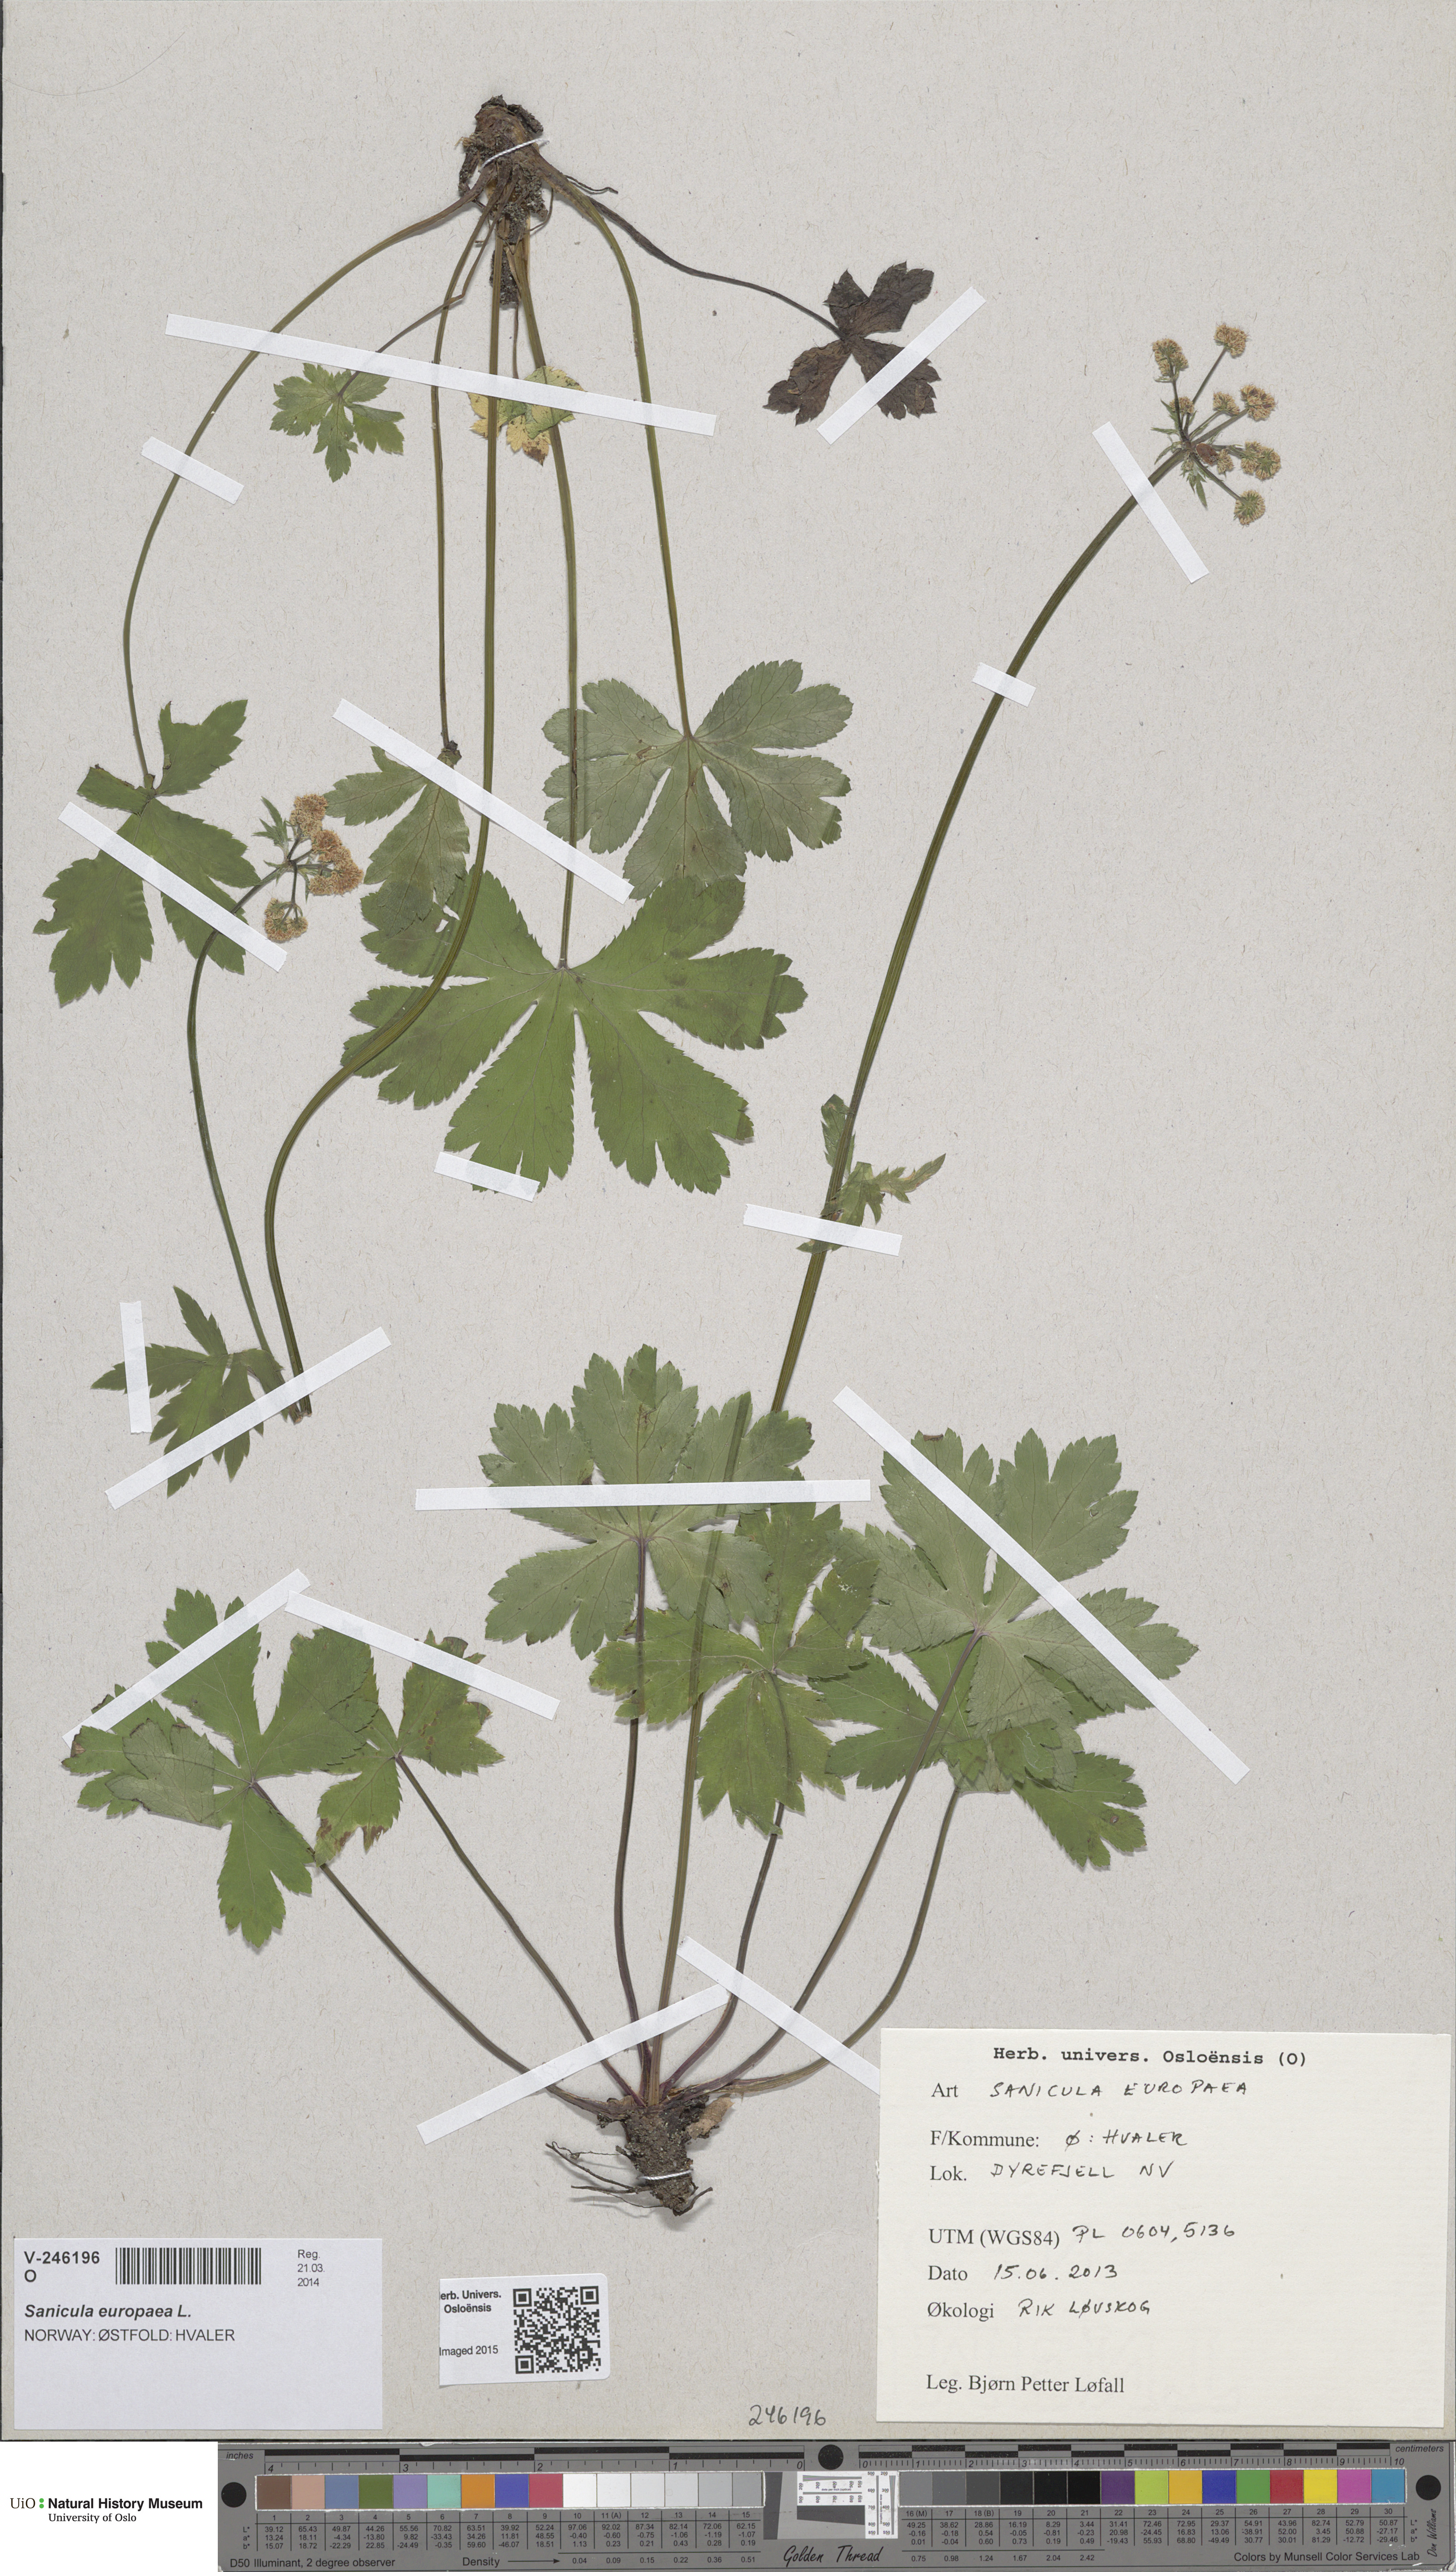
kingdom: Plantae
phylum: Tracheophyta
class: Magnoliopsida
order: Apiales
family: Apiaceae
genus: Sanicula
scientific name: Sanicula europaea
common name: Sanicle
